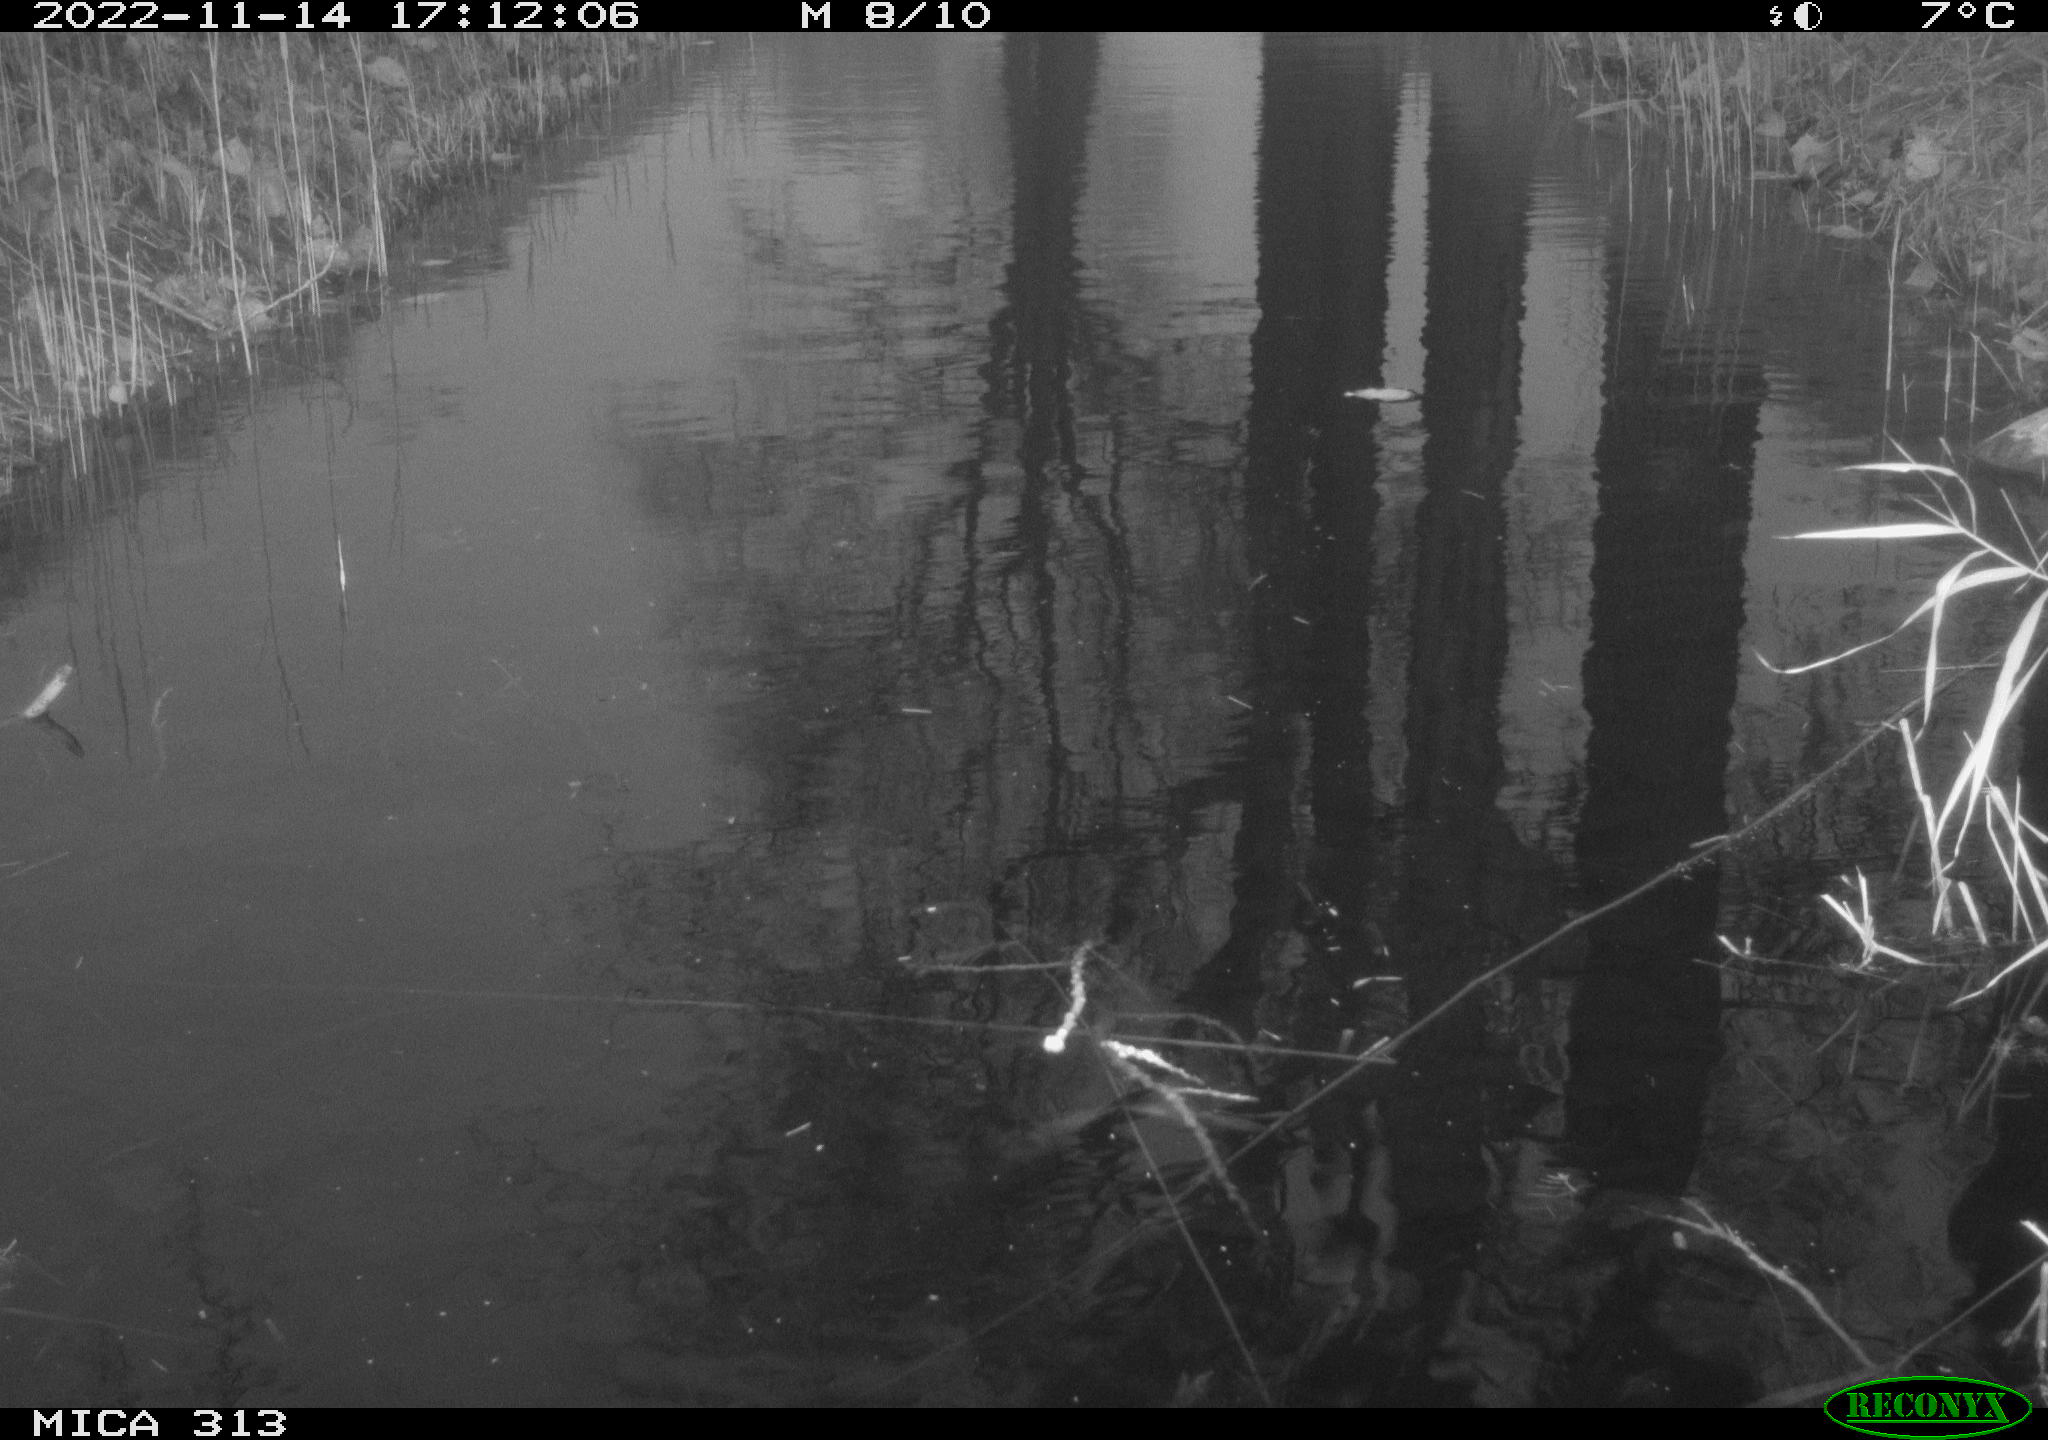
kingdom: Animalia
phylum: Chordata
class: Aves
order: Gruiformes
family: Rallidae
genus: Gallinula
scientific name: Gallinula chloropus
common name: Common moorhen
